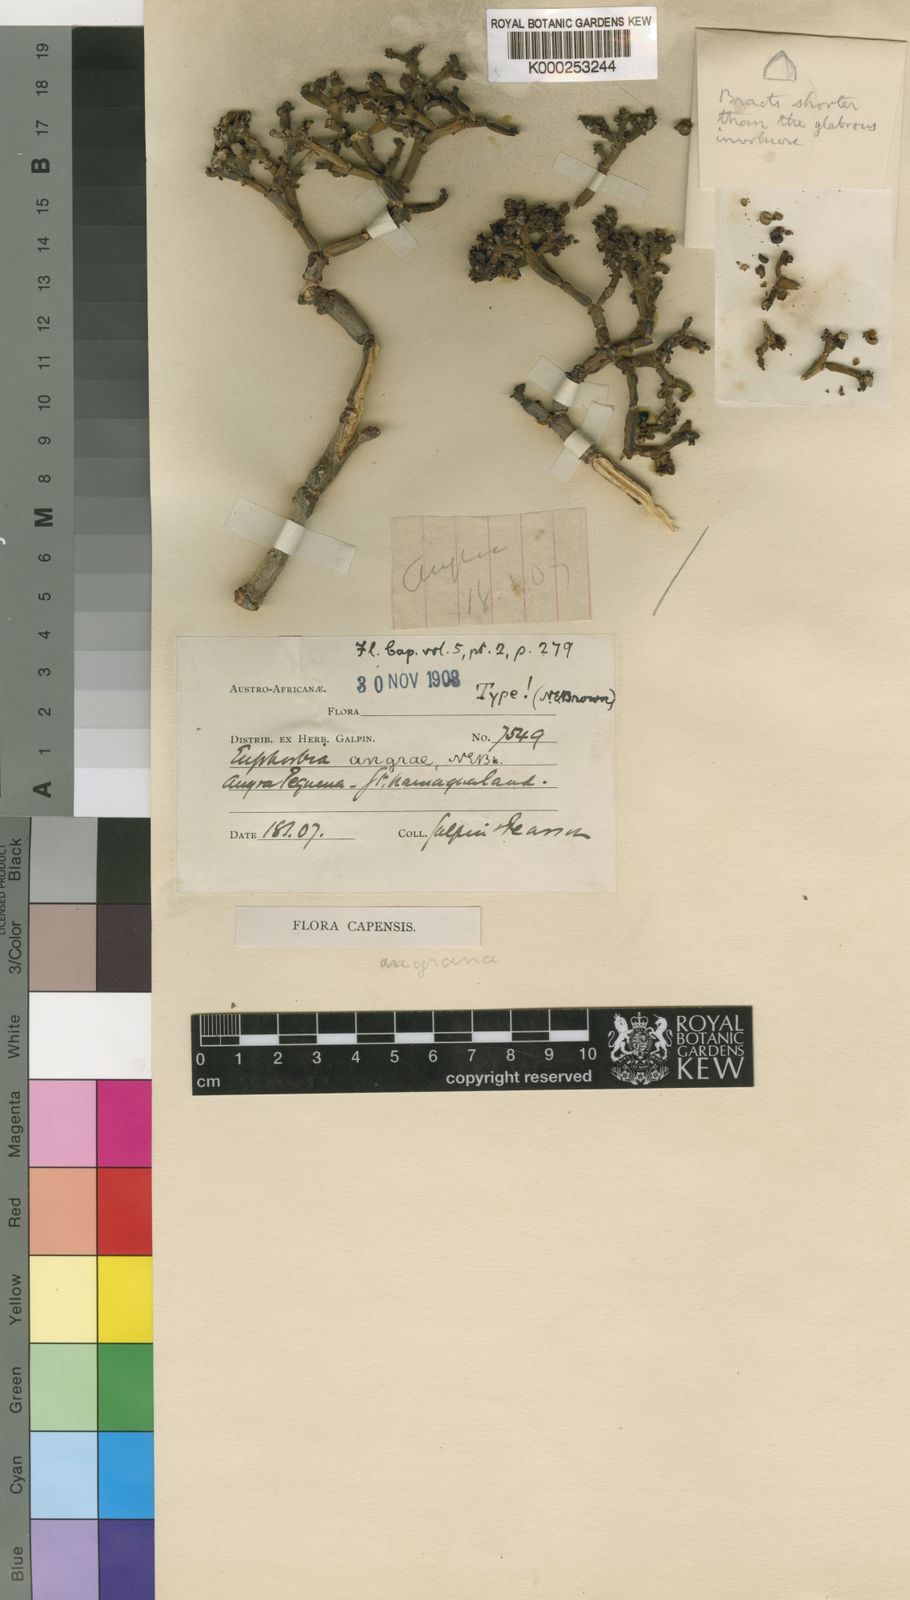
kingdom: Plantae
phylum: Tracheophyta
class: Magnoliopsida
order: Malpighiales
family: Euphorbiaceae
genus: Euphorbia
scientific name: Euphorbia rhombifolia
